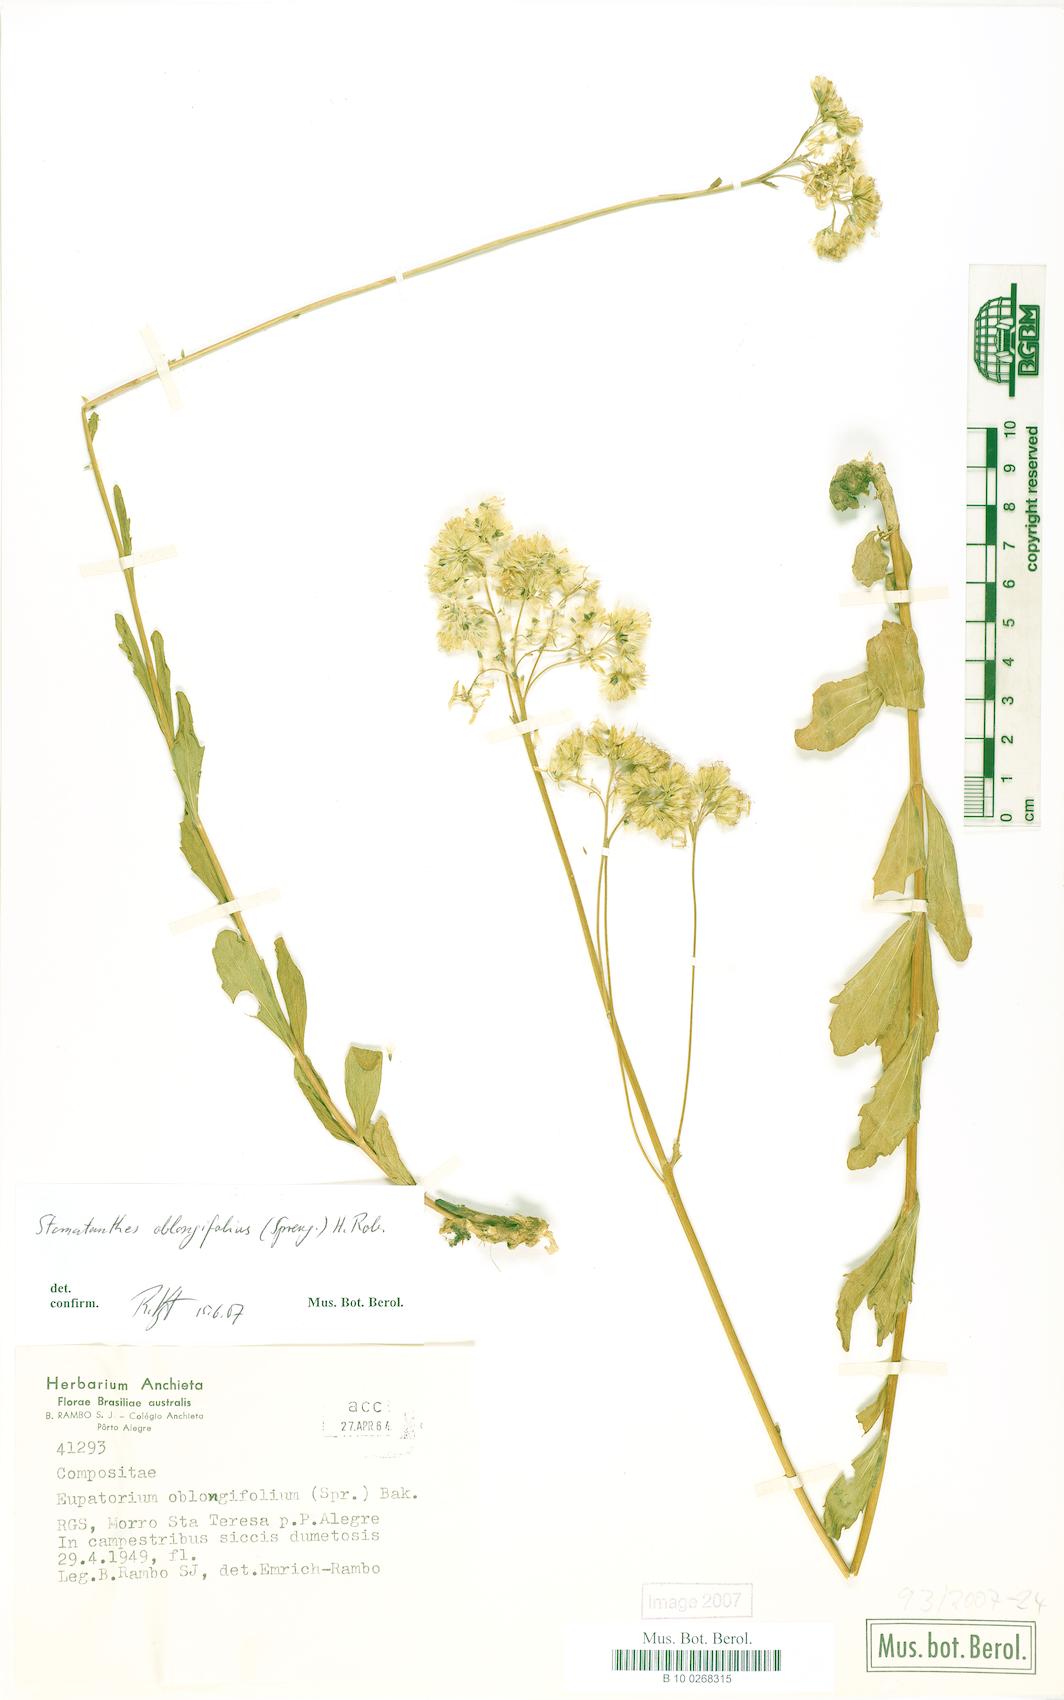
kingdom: Plantae
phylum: Tracheophyta
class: Magnoliopsida
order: Asterales
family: Asteraceae
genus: Stomatanthes
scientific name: Stomatanthes oblongifolius
